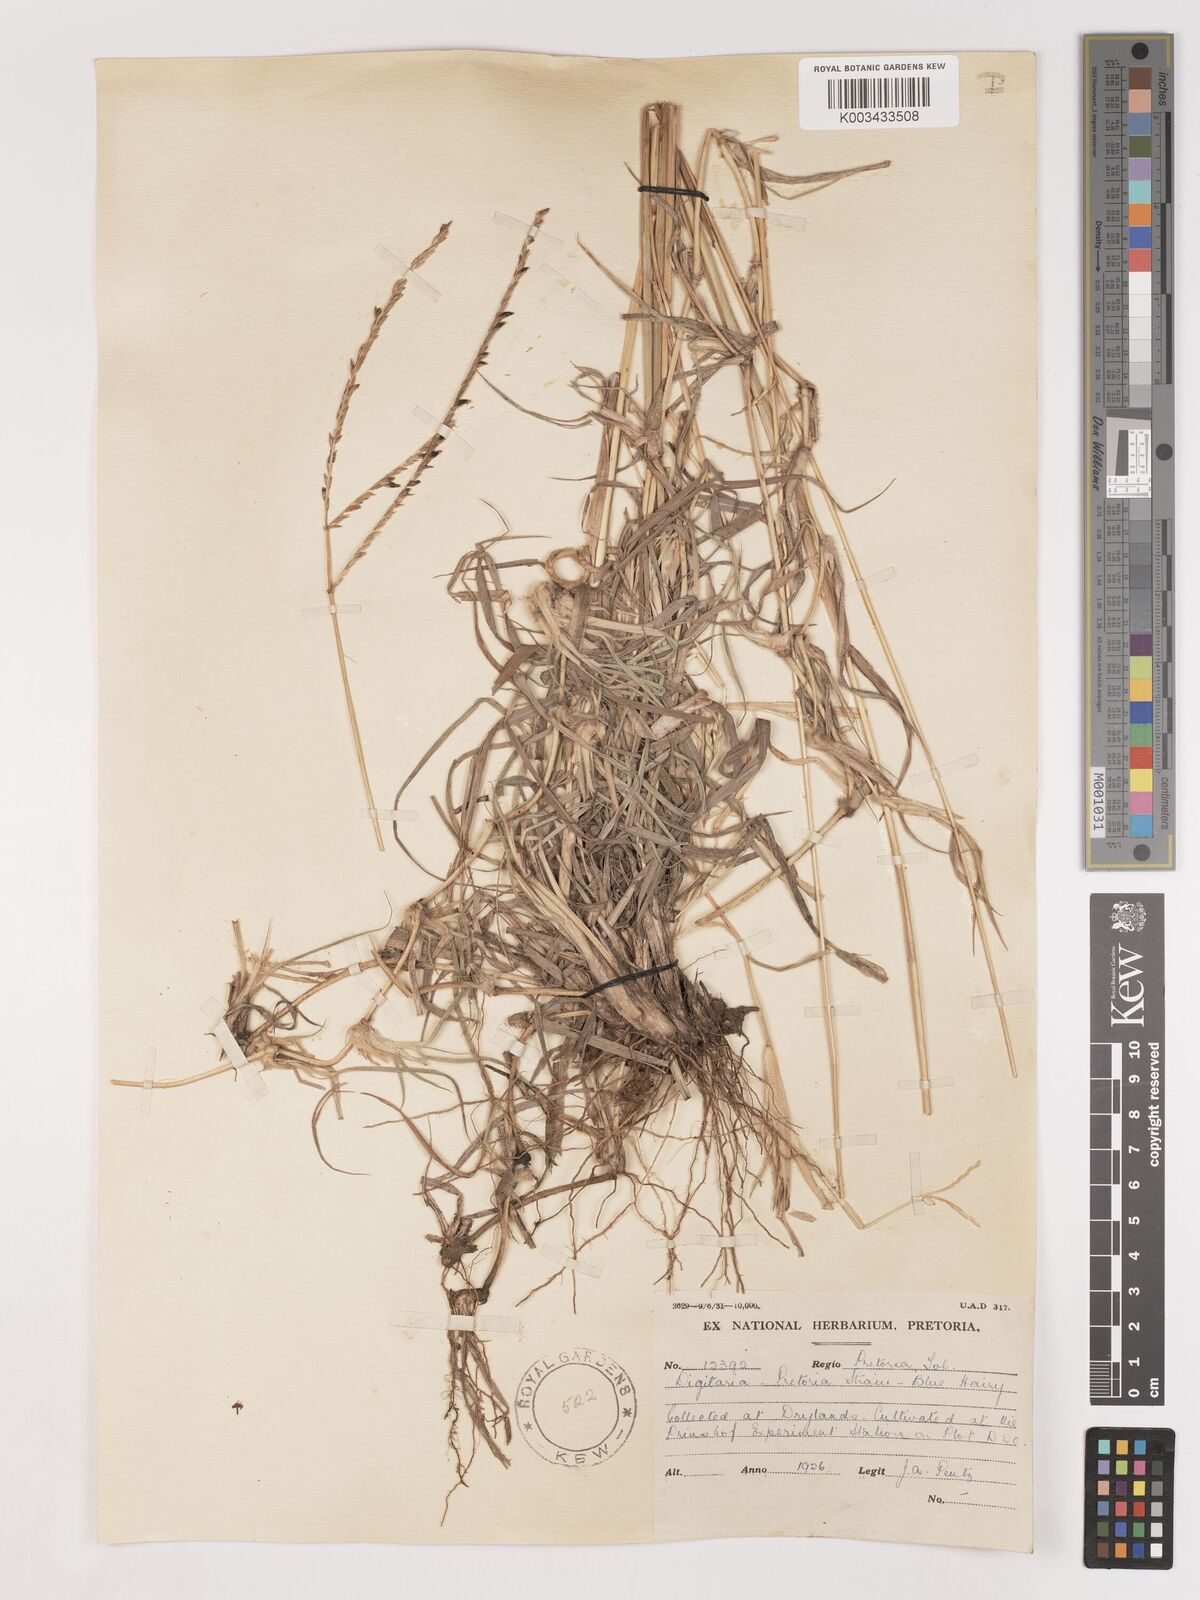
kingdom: Plantae
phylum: Tracheophyta
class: Liliopsida
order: Poales
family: Poaceae
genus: Digitaria
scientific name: Digitaria eriantha
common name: Digitgrass
